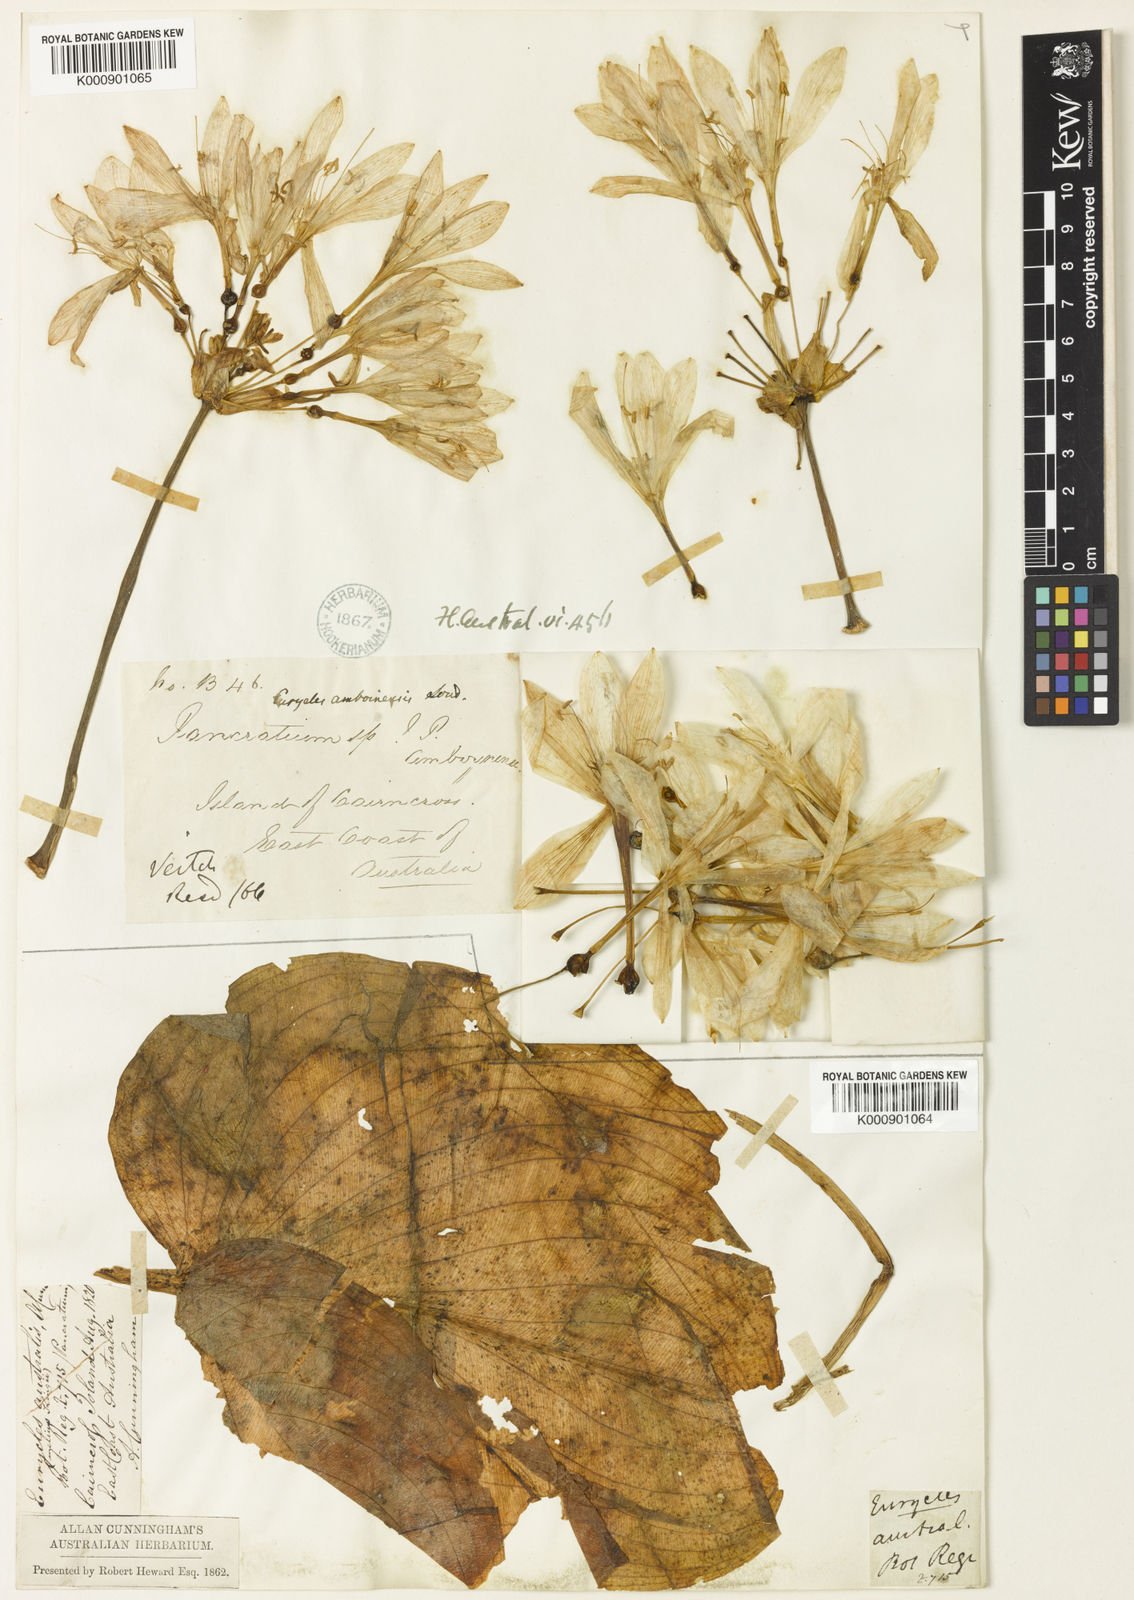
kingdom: Plantae
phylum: Tracheophyta
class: Liliopsida
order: Asparagales
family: Amaryllidaceae
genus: Proiphys
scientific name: Proiphys amboinensis
